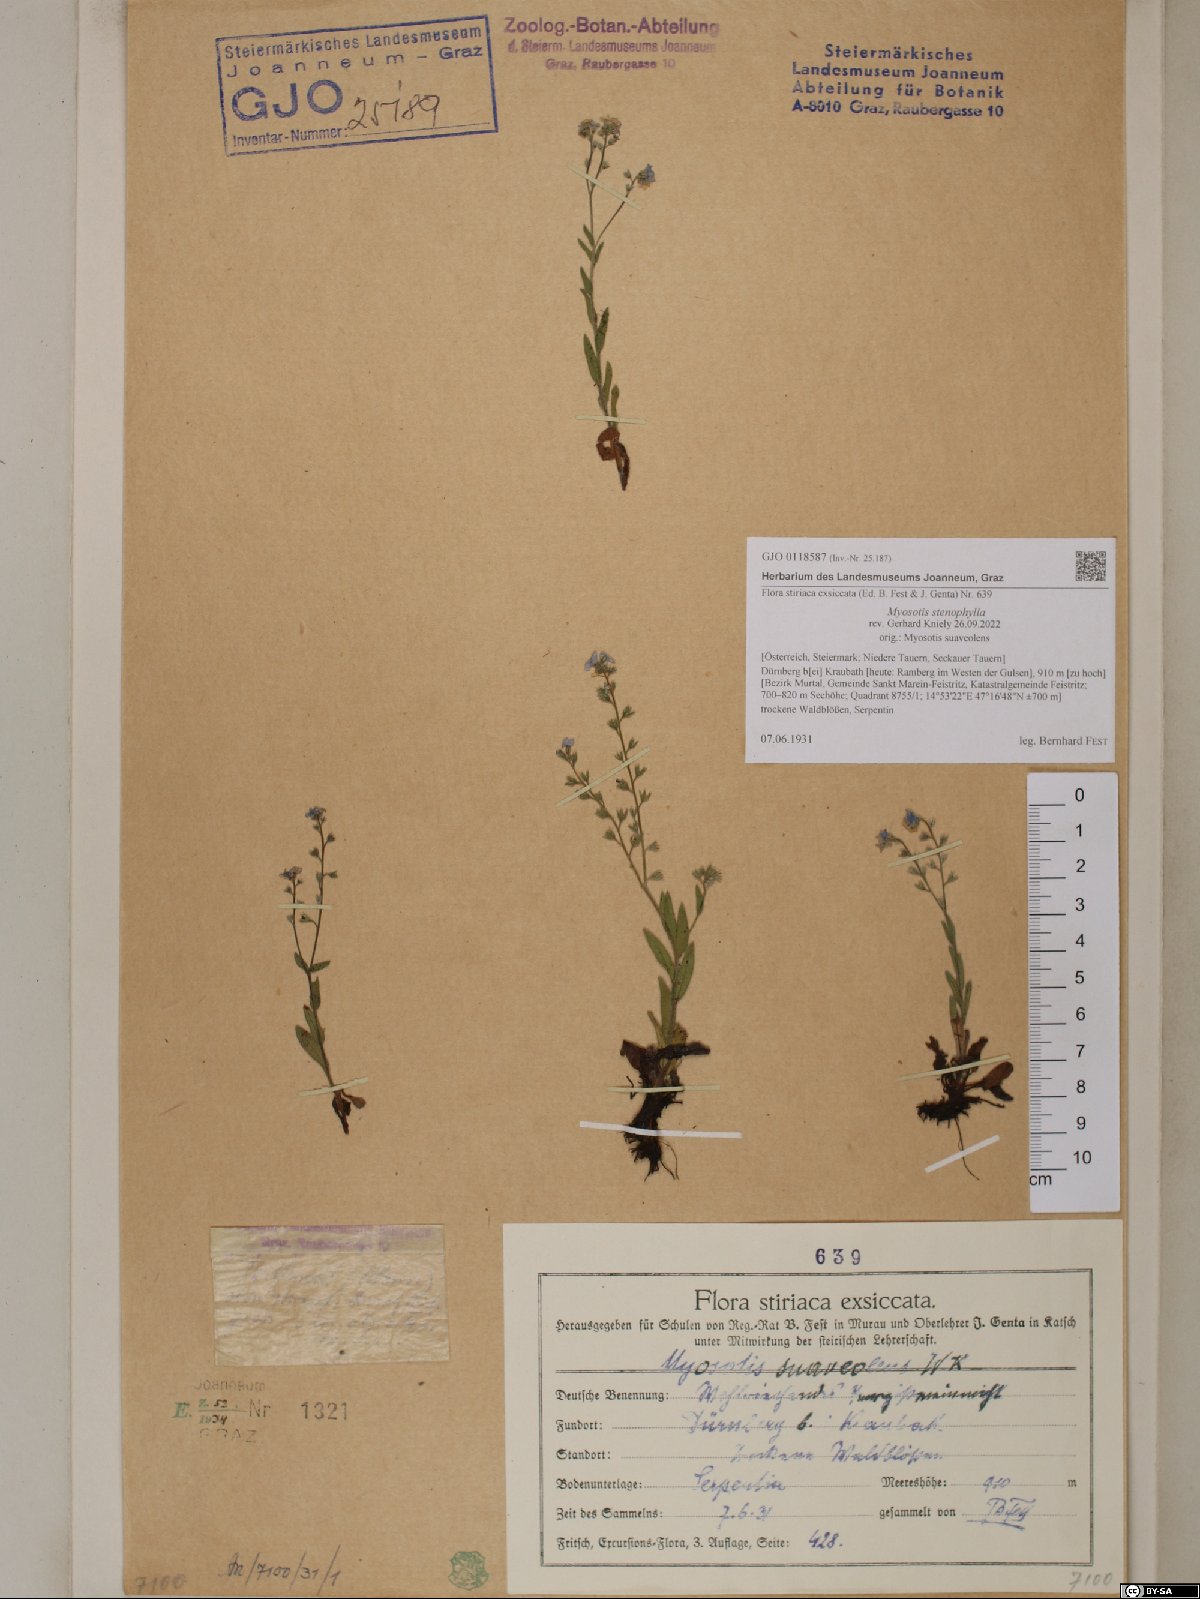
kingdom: Plantae
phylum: Tracheophyta
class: Magnoliopsida
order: Boraginales
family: Boraginaceae
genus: Myosotis
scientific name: Myosotis stenophylla
